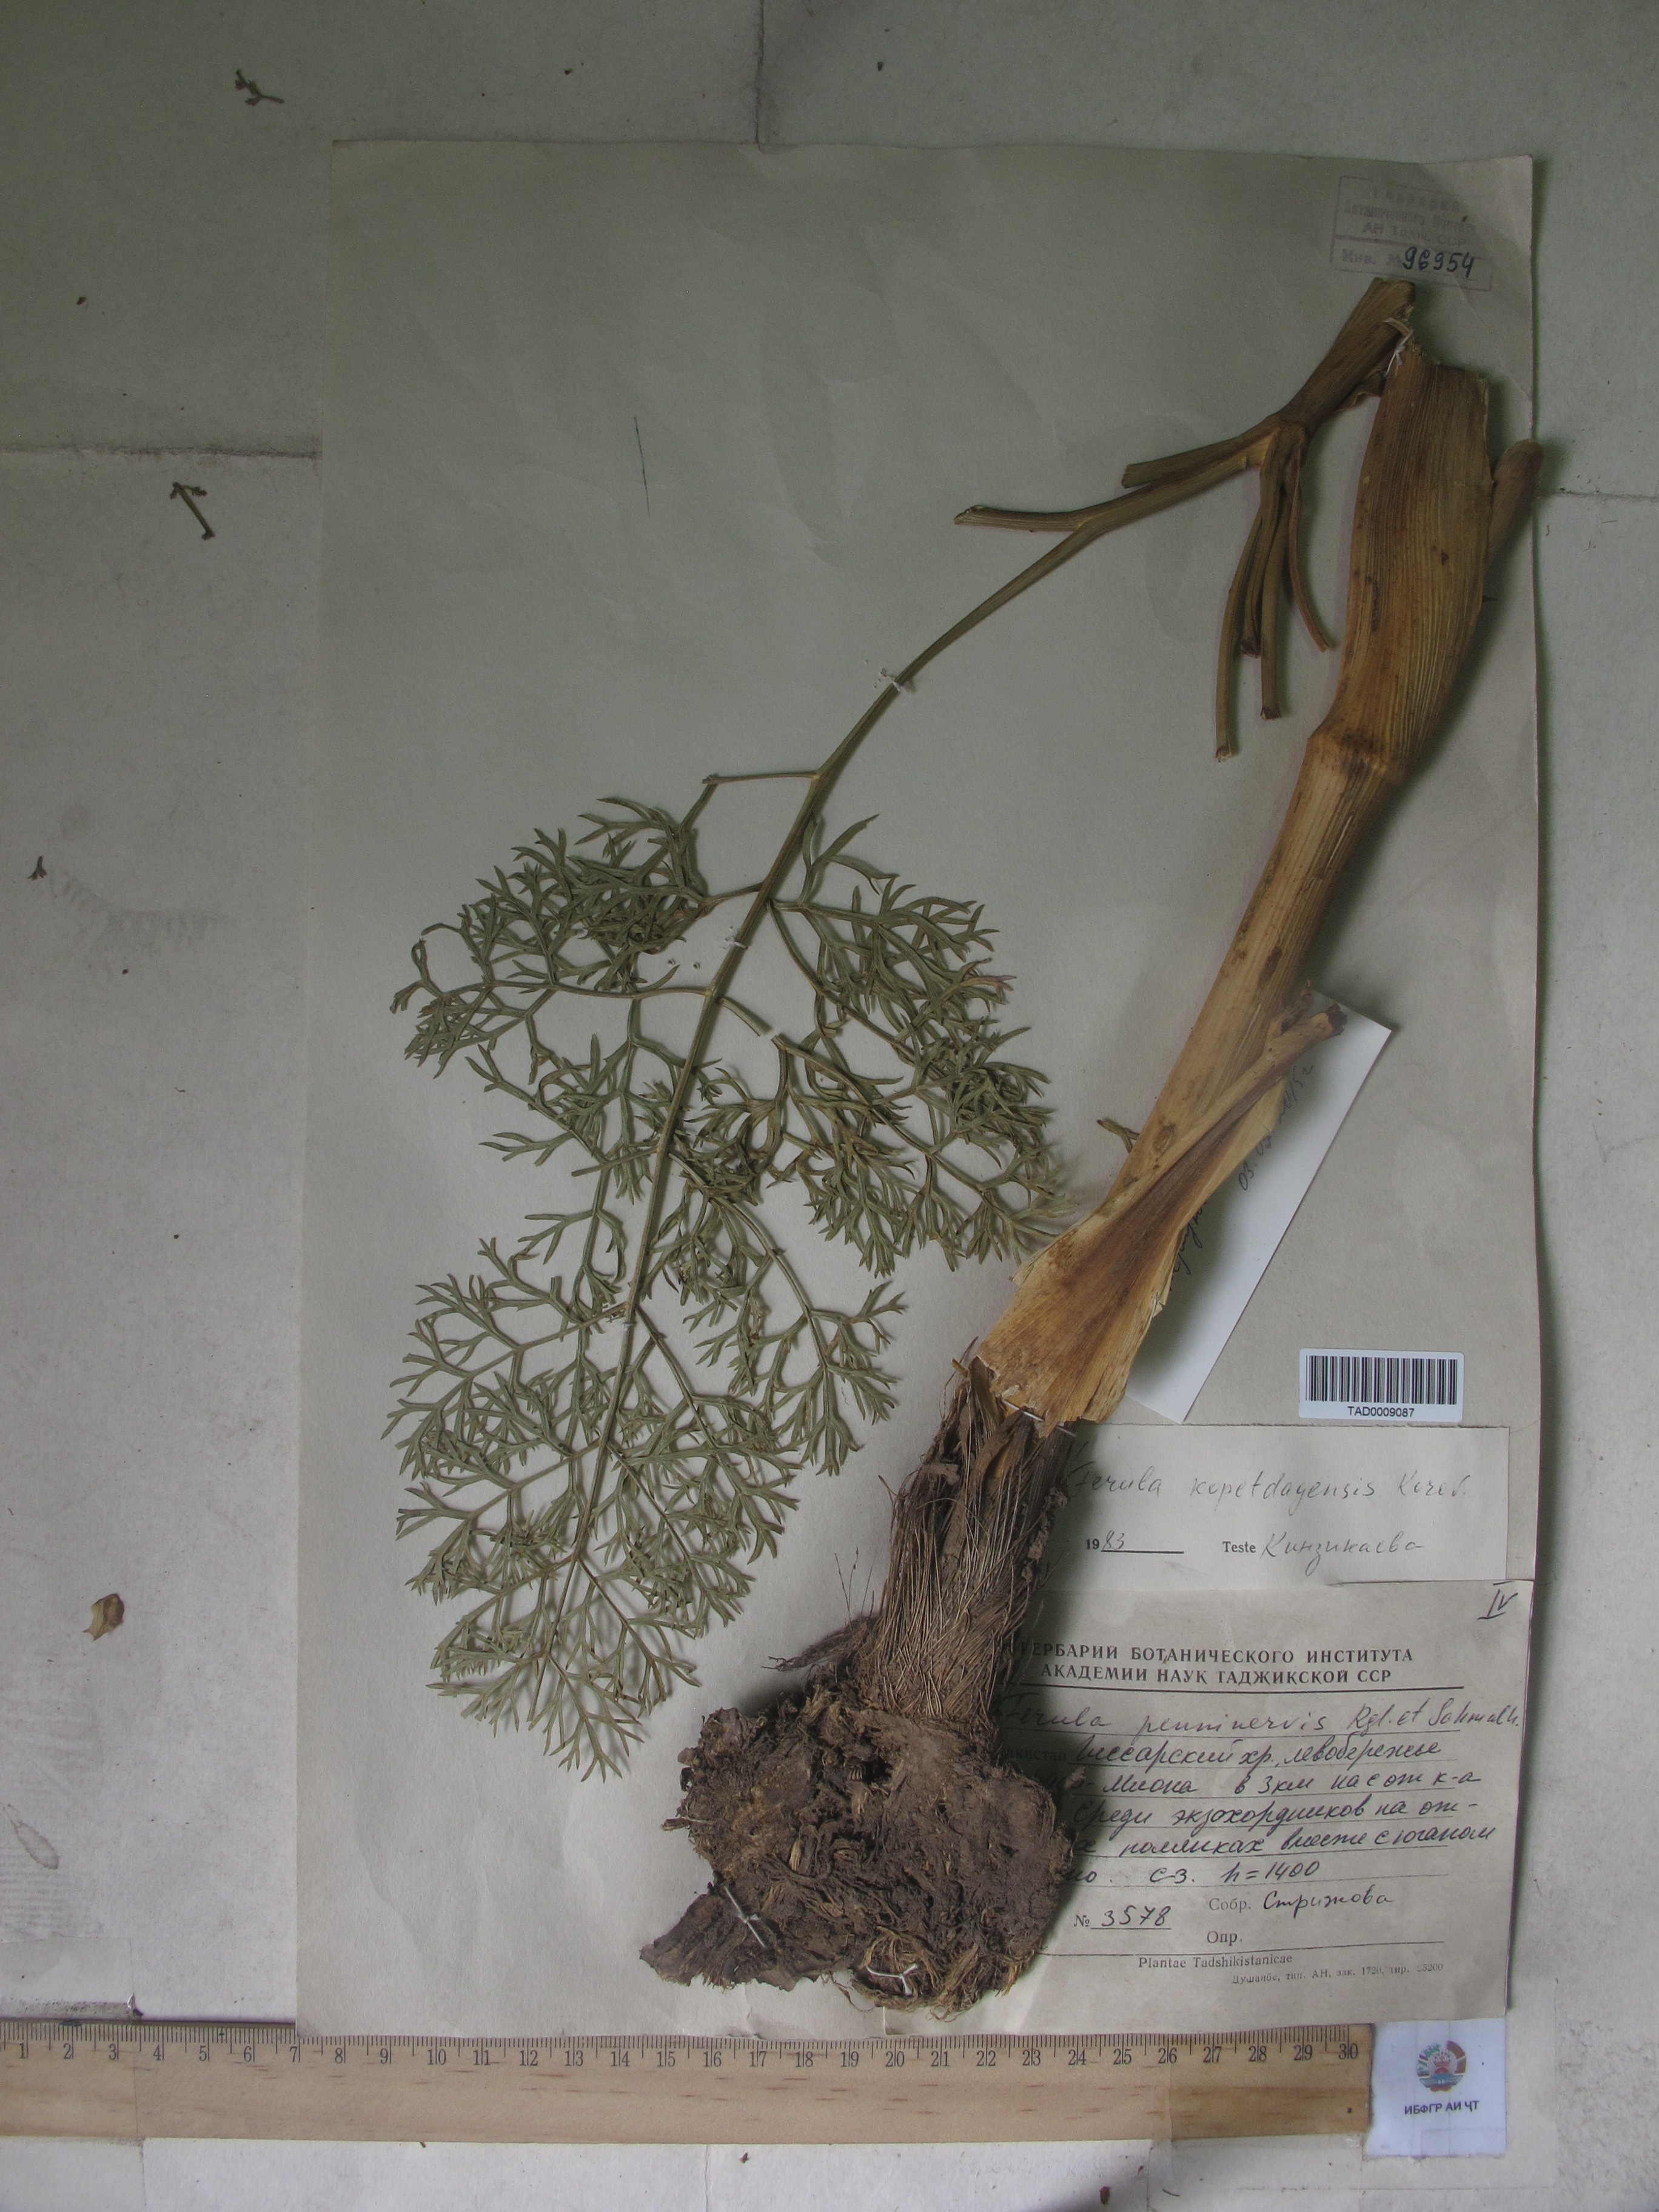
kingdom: Plantae
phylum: Tracheophyta
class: Magnoliopsida
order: Apiales
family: Apiaceae
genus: Ferula
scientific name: Ferula hissarica
